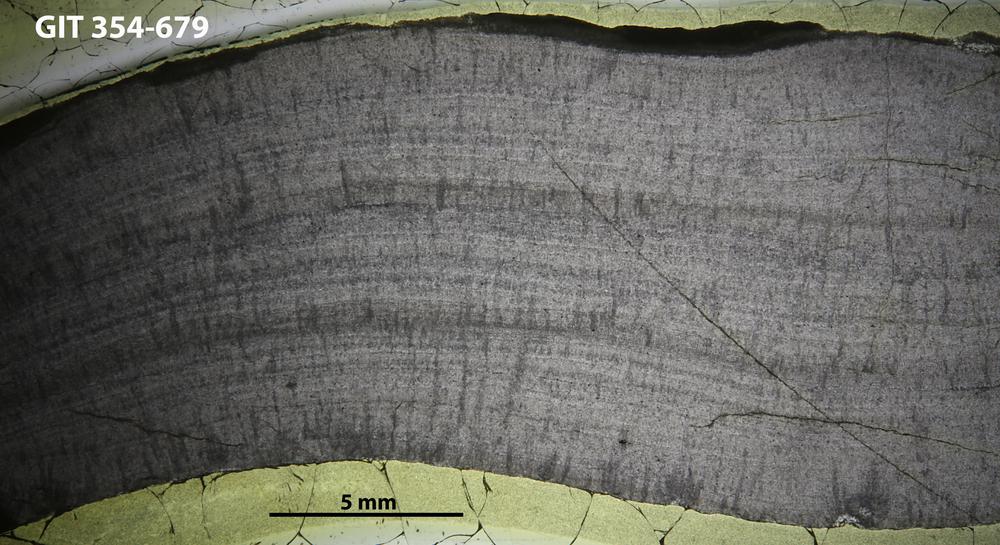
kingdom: Animalia
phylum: Porifera
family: Densastromatidae
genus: Densastroma
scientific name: Densastroma
